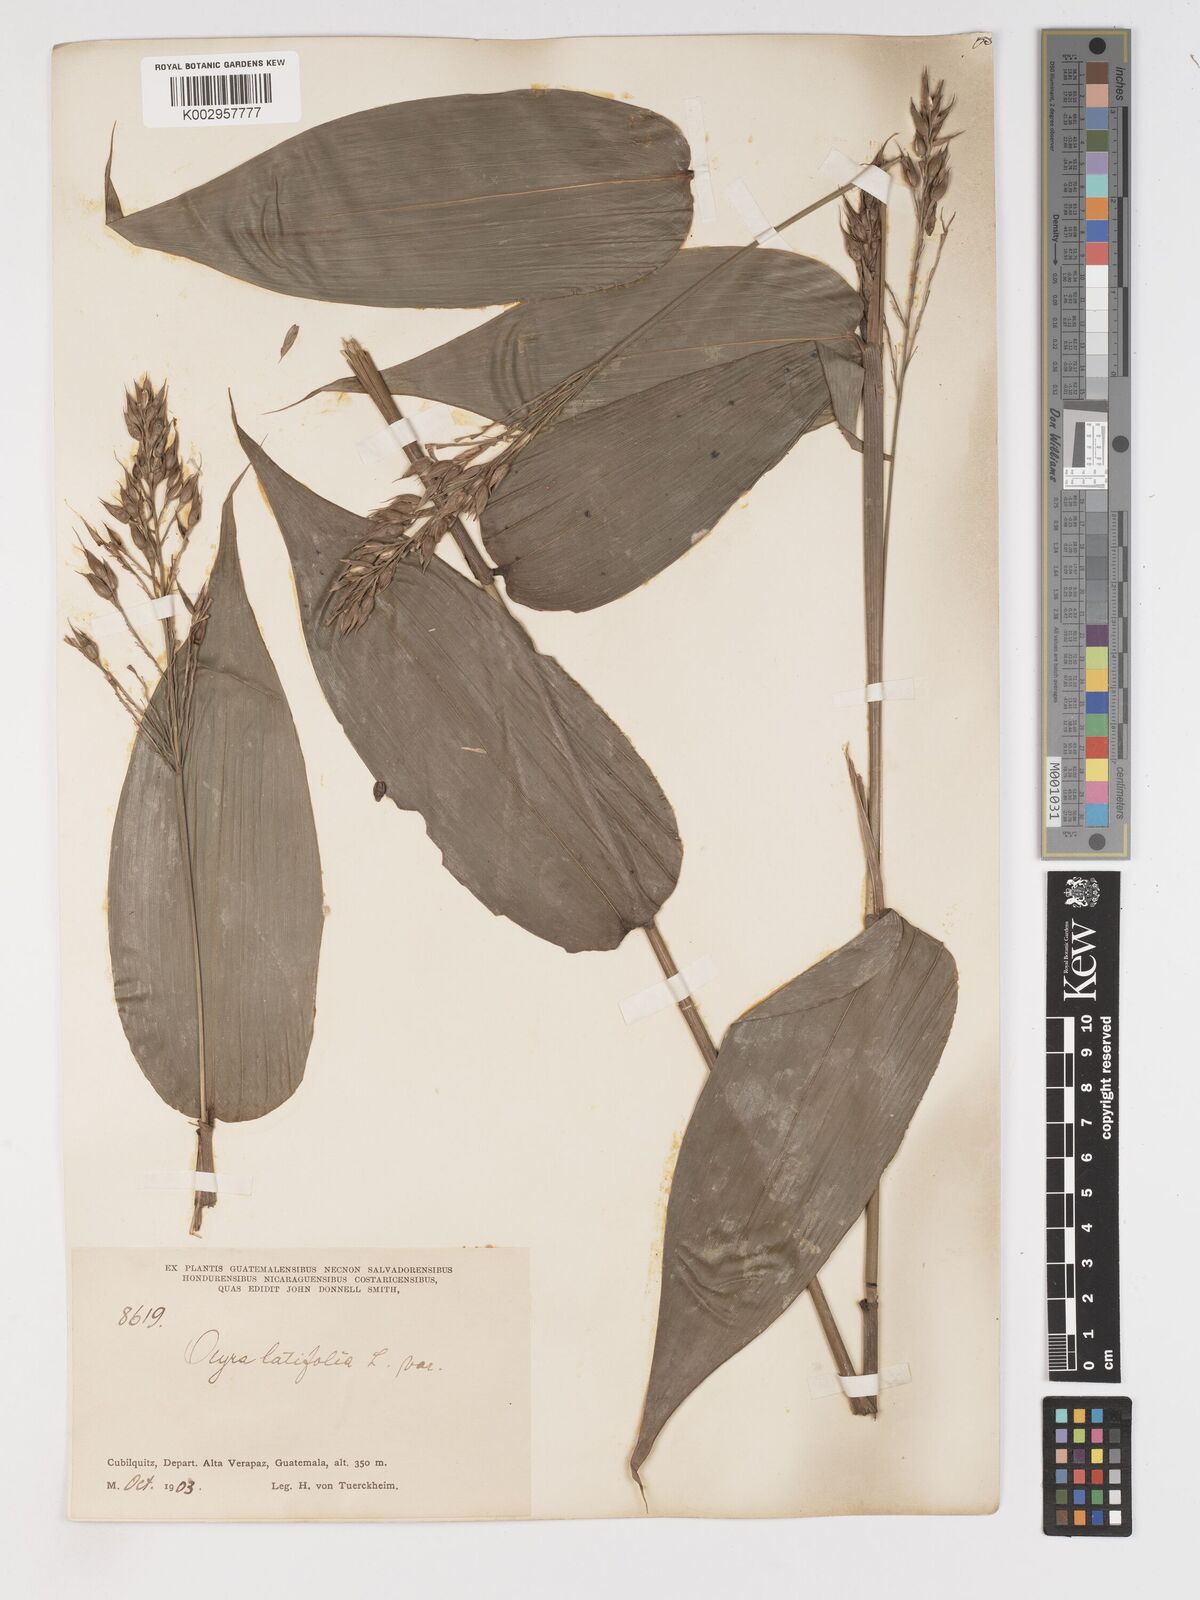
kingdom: Plantae
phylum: Tracheophyta
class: Liliopsida
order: Poales
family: Poaceae
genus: Olyra
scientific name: Olyra latifolia
